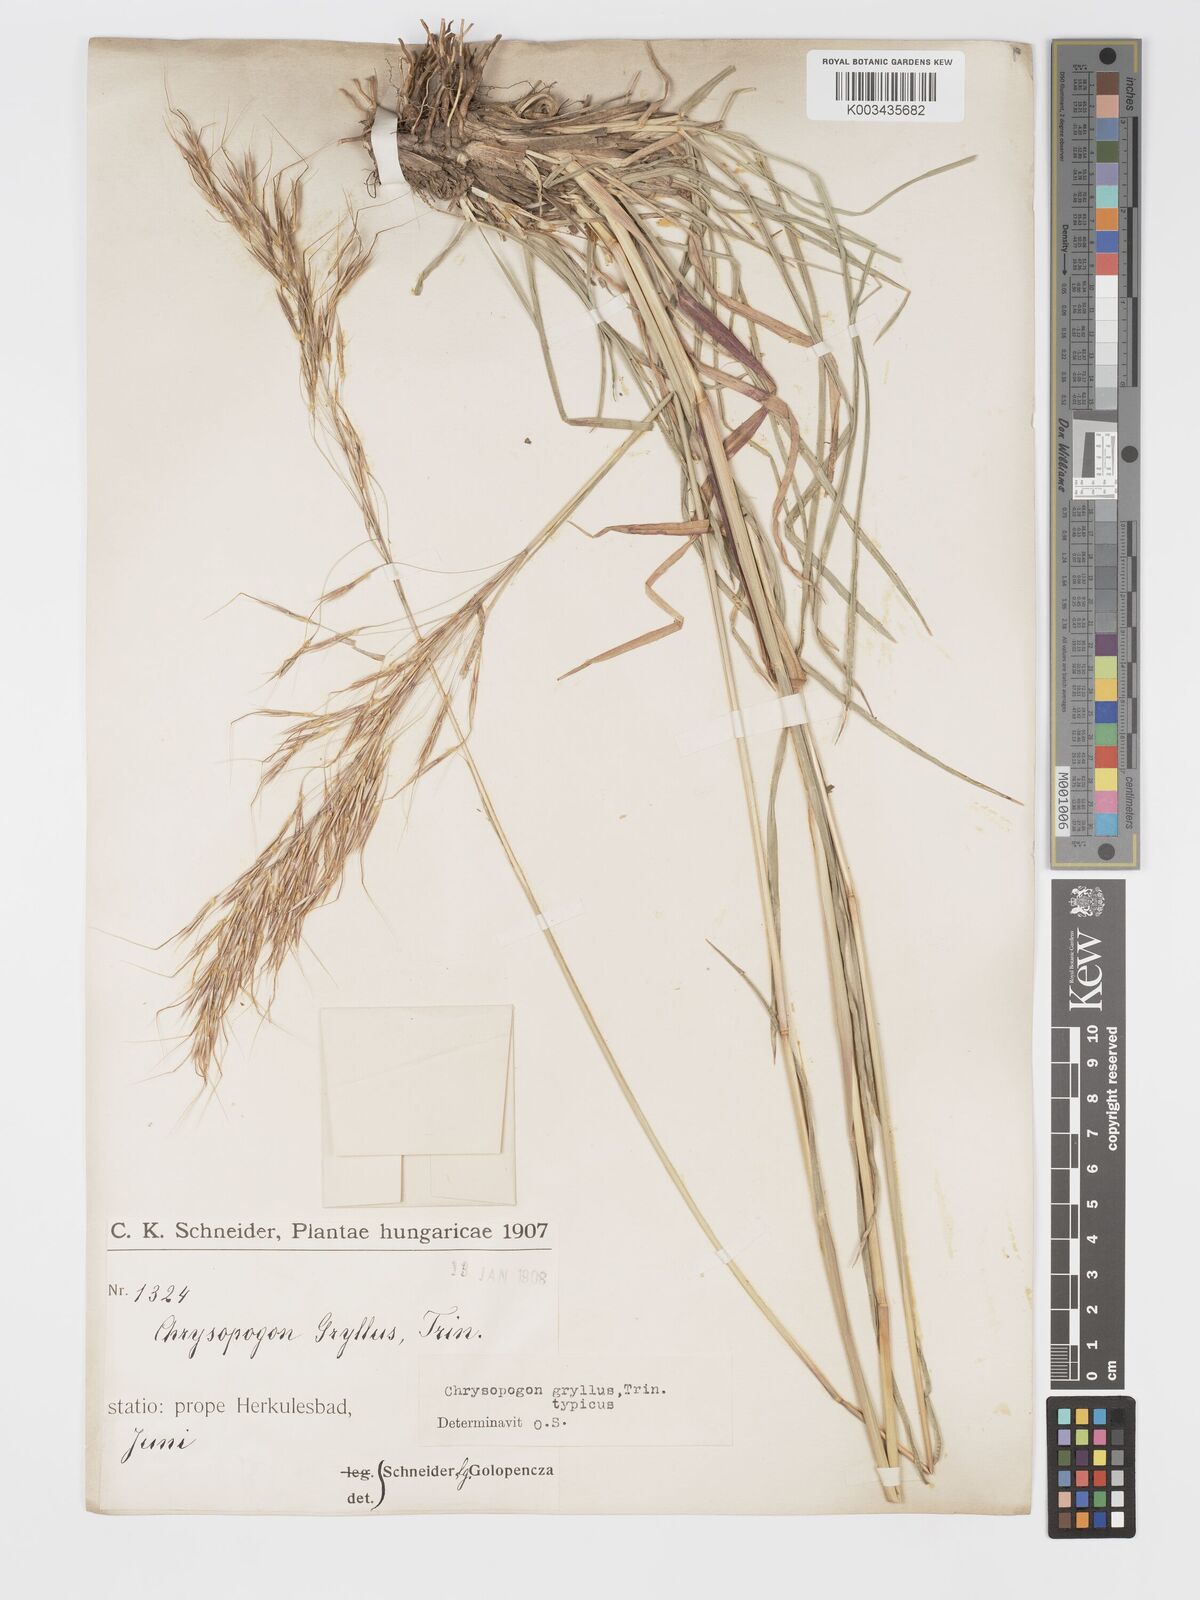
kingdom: Plantae
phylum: Tracheophyta
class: Liliopsida
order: Poales
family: Poaceae
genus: Chrysopogon
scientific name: Chrysopogon gryllus
